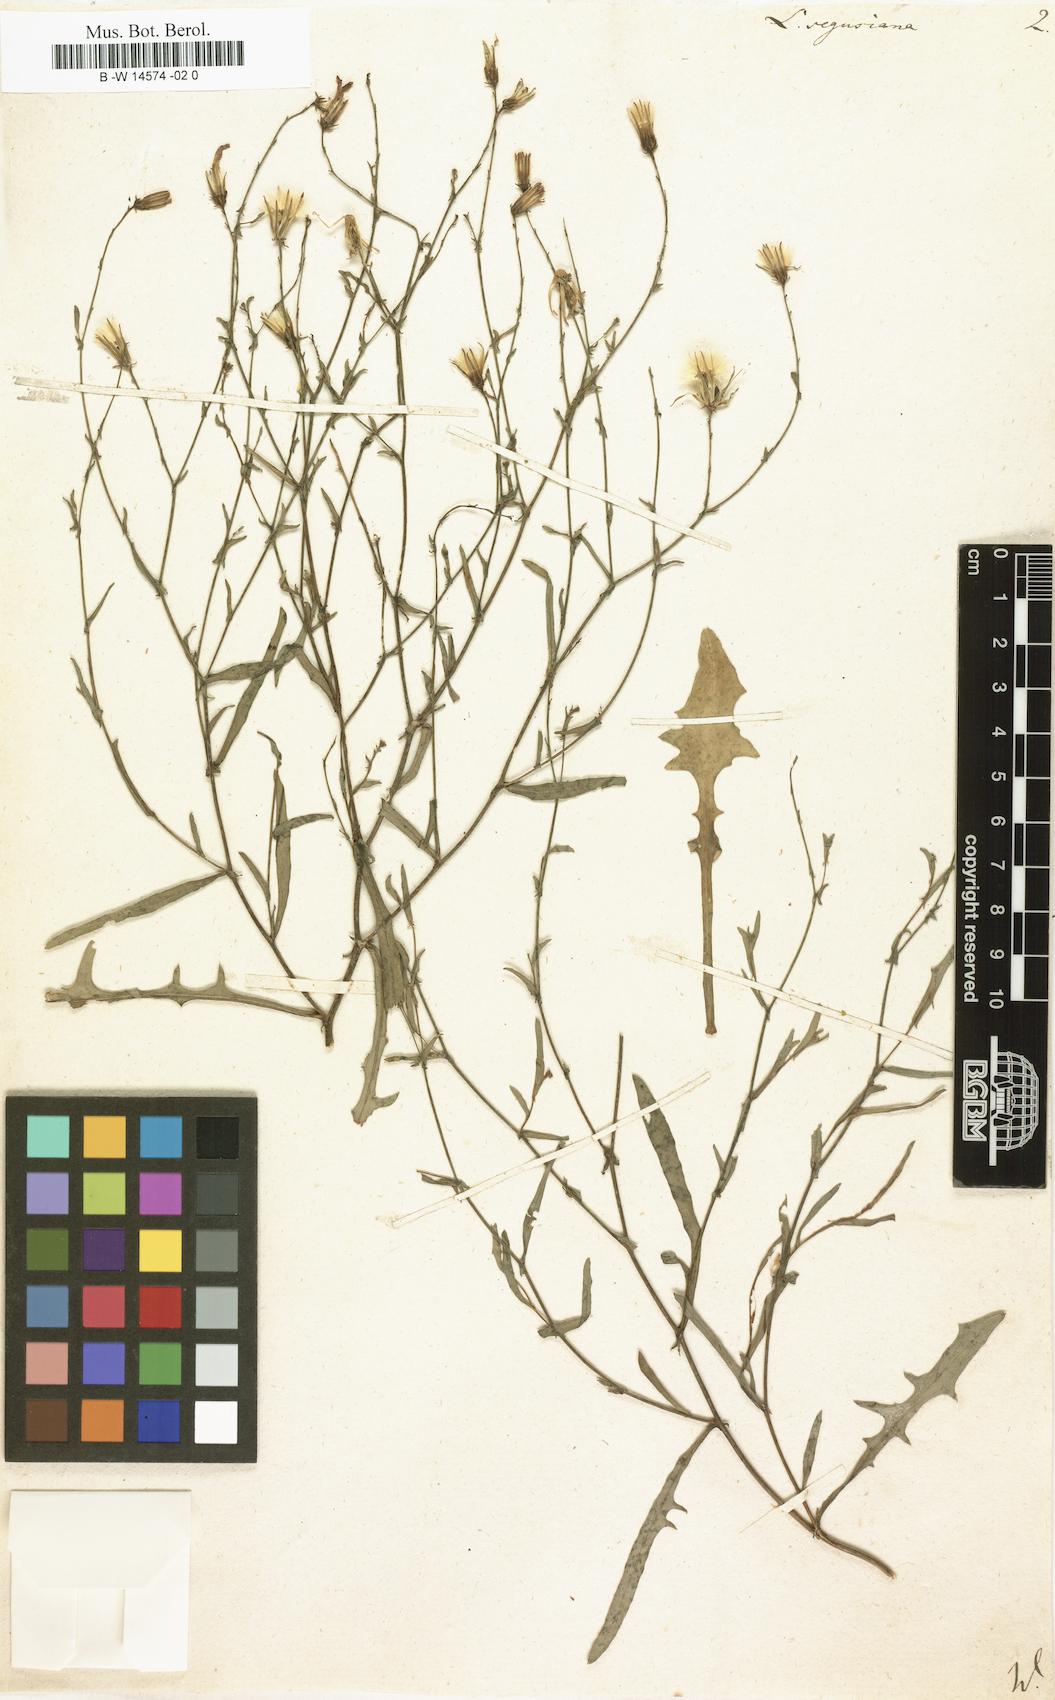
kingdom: Plantae
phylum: Tracheophyta
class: Magnoliopsida
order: Asterales
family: Asteraceae
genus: Lactuca
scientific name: Lactuca tenerrima
